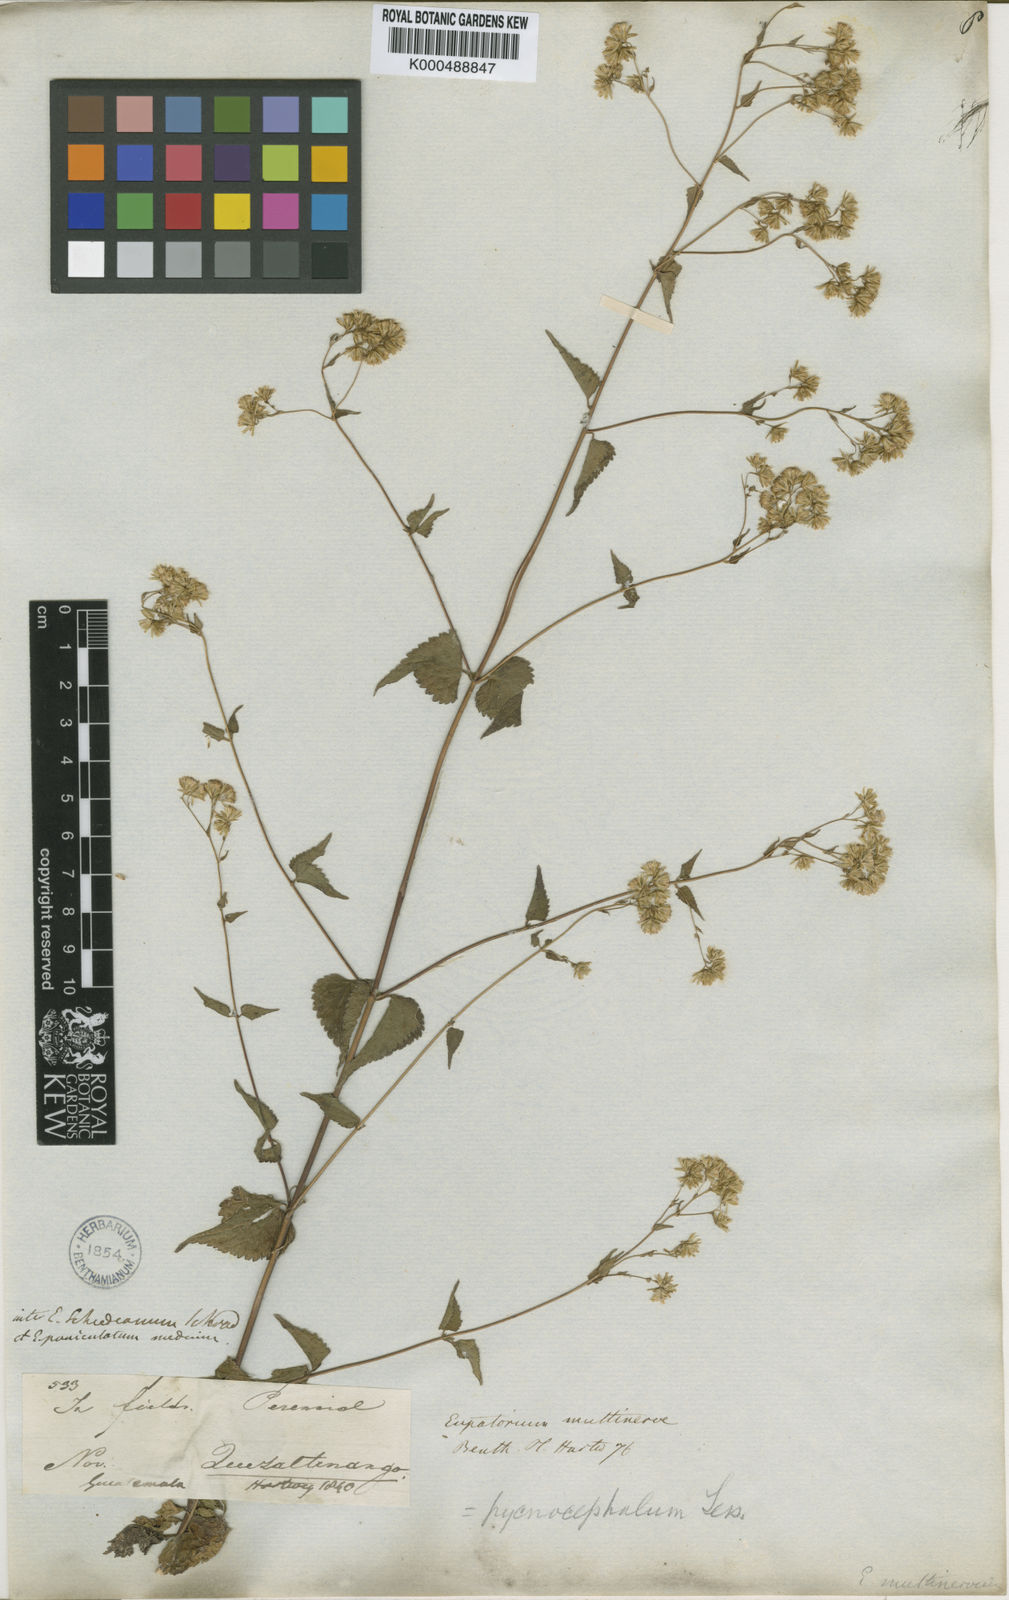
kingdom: Plantae
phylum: Tracheophyta
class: Magnoliopsida
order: Asterales
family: Asteraceae
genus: Fleischmannia
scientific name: Fleischmannia pycnocephala
